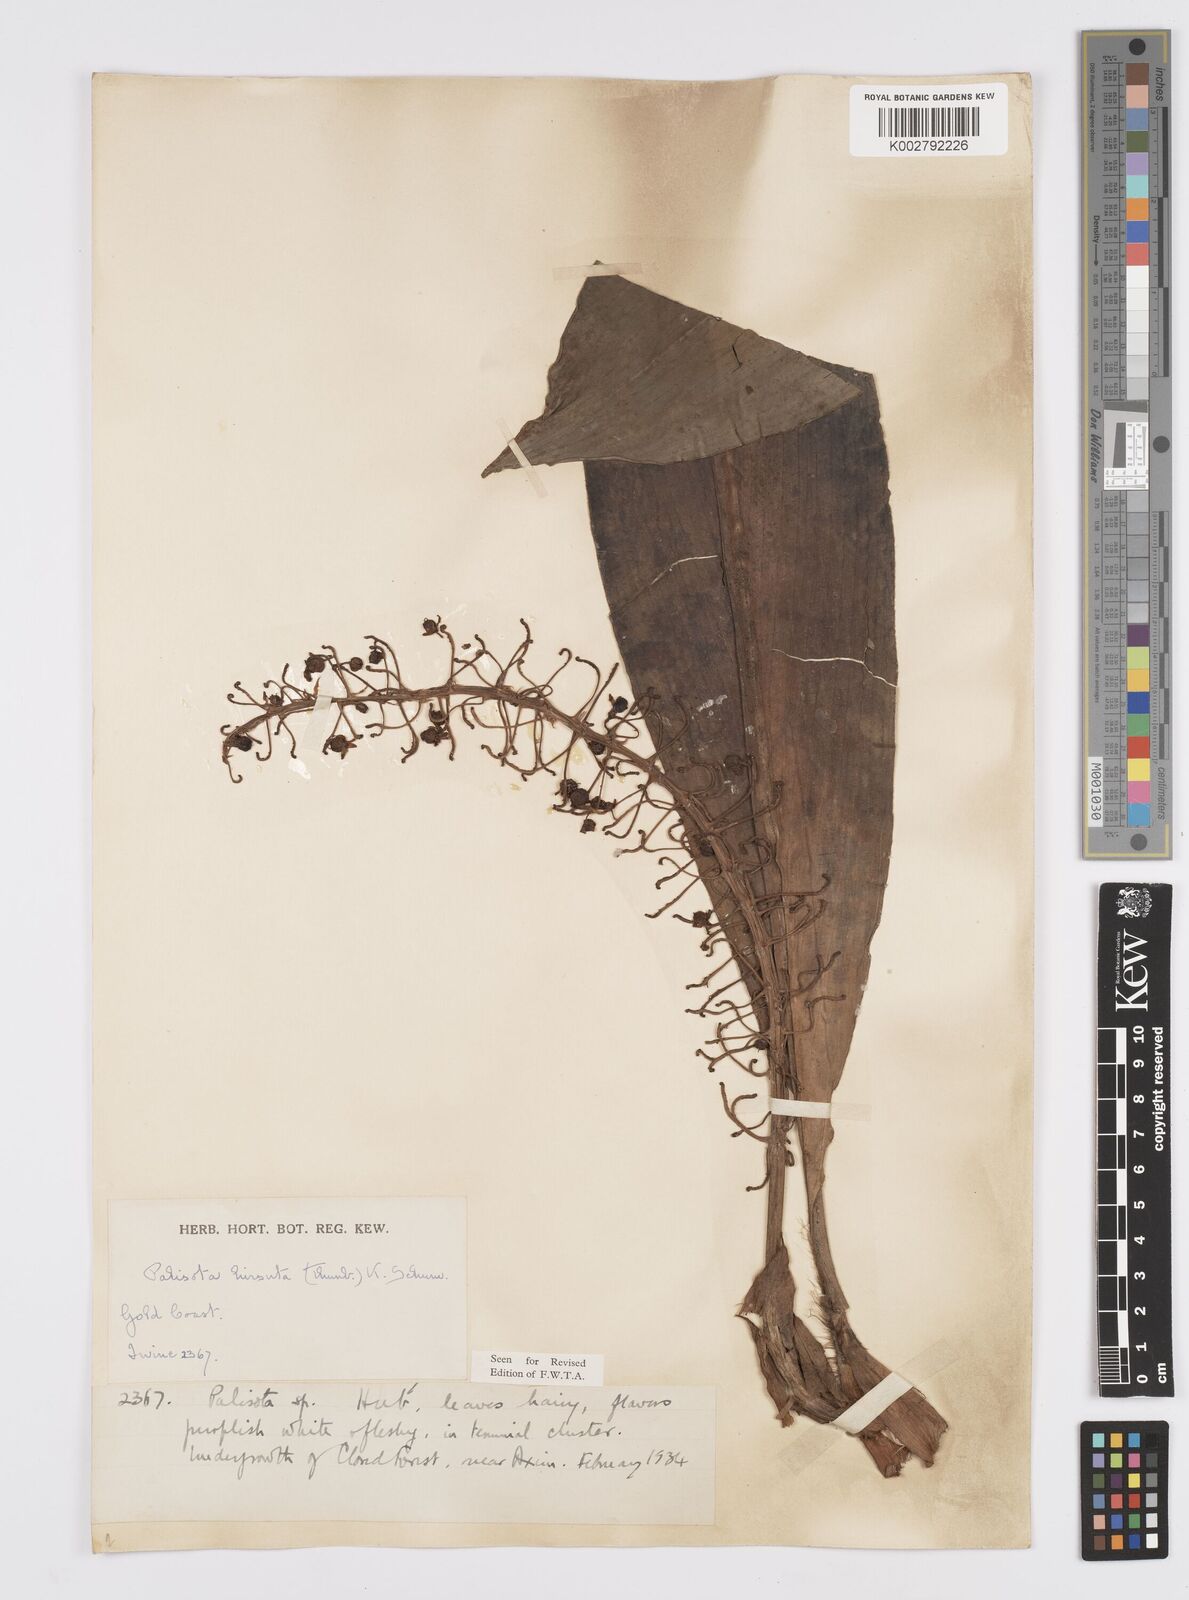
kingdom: Plantae
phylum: Tracheophyta
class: Liliopsida
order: Commelinales
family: Commelinaceae
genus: Palisota
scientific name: Palisota hirsuta
